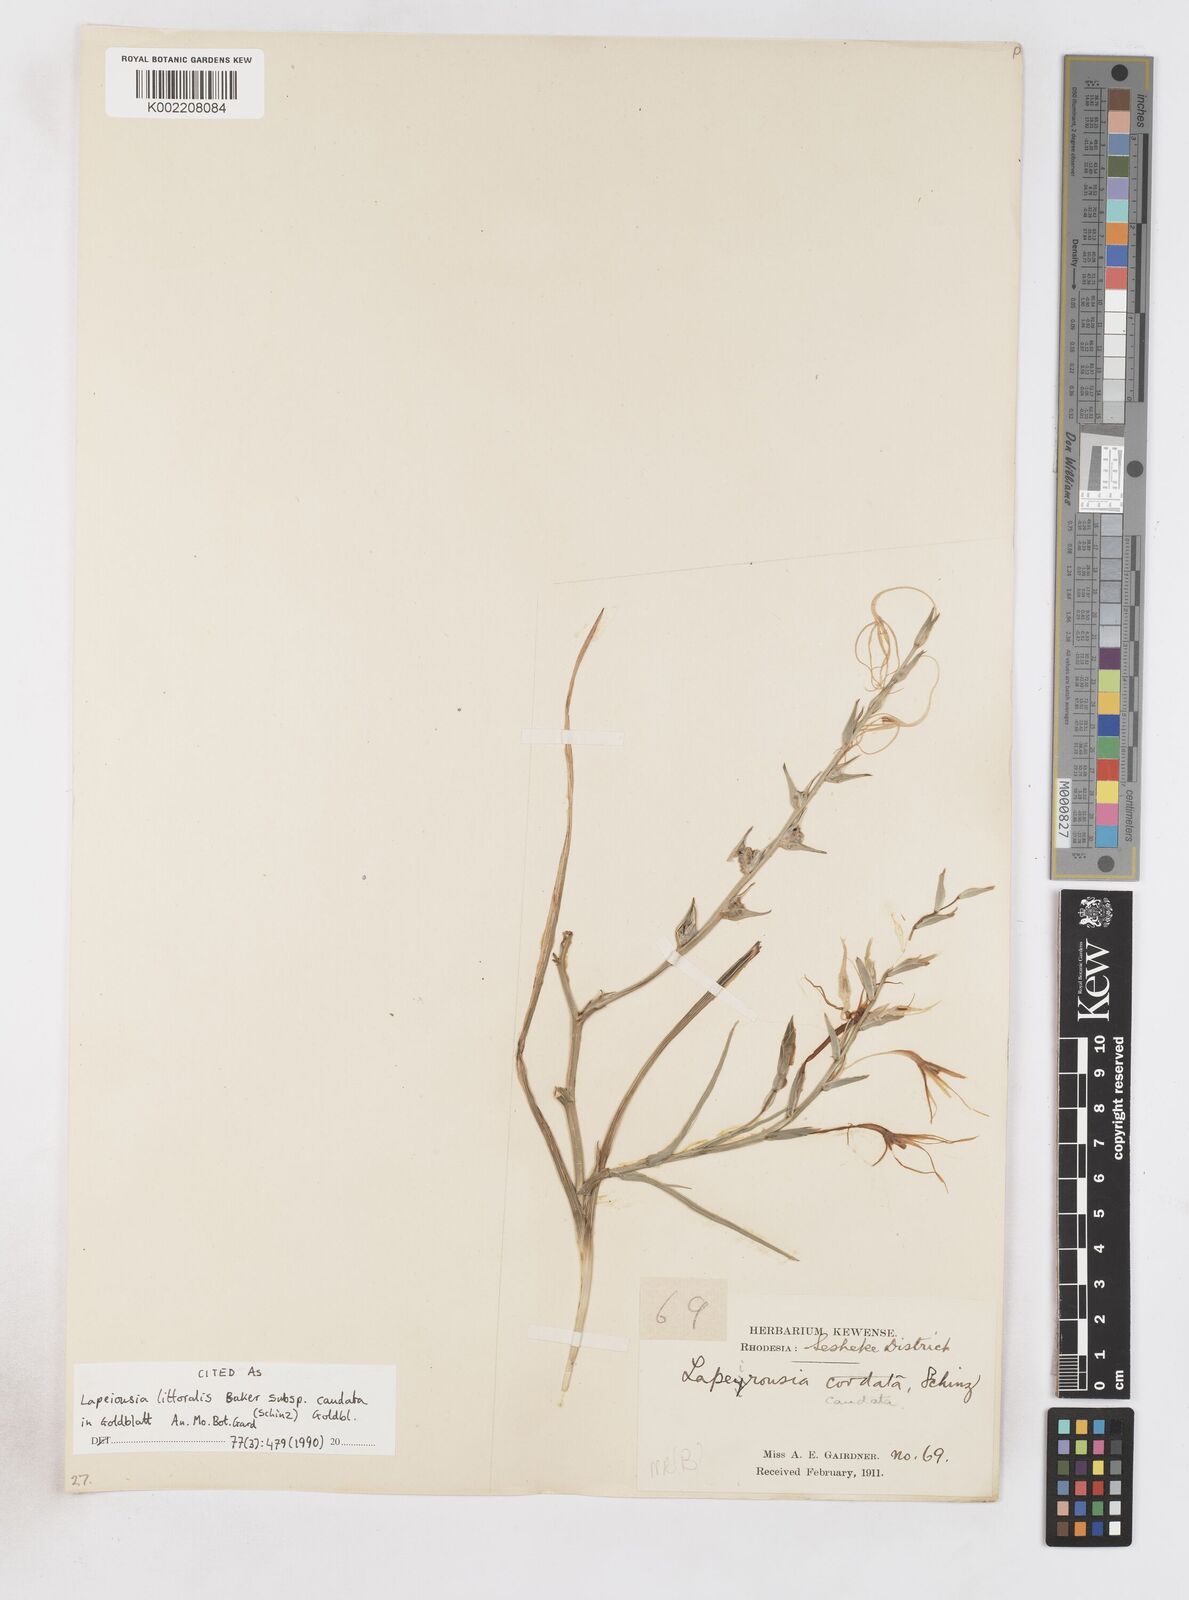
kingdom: Plantae
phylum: Tracheophyta
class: Liliopsida
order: Asparagales
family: Iridaceae
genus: Lapeirousia
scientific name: Lapeirousia caudata
